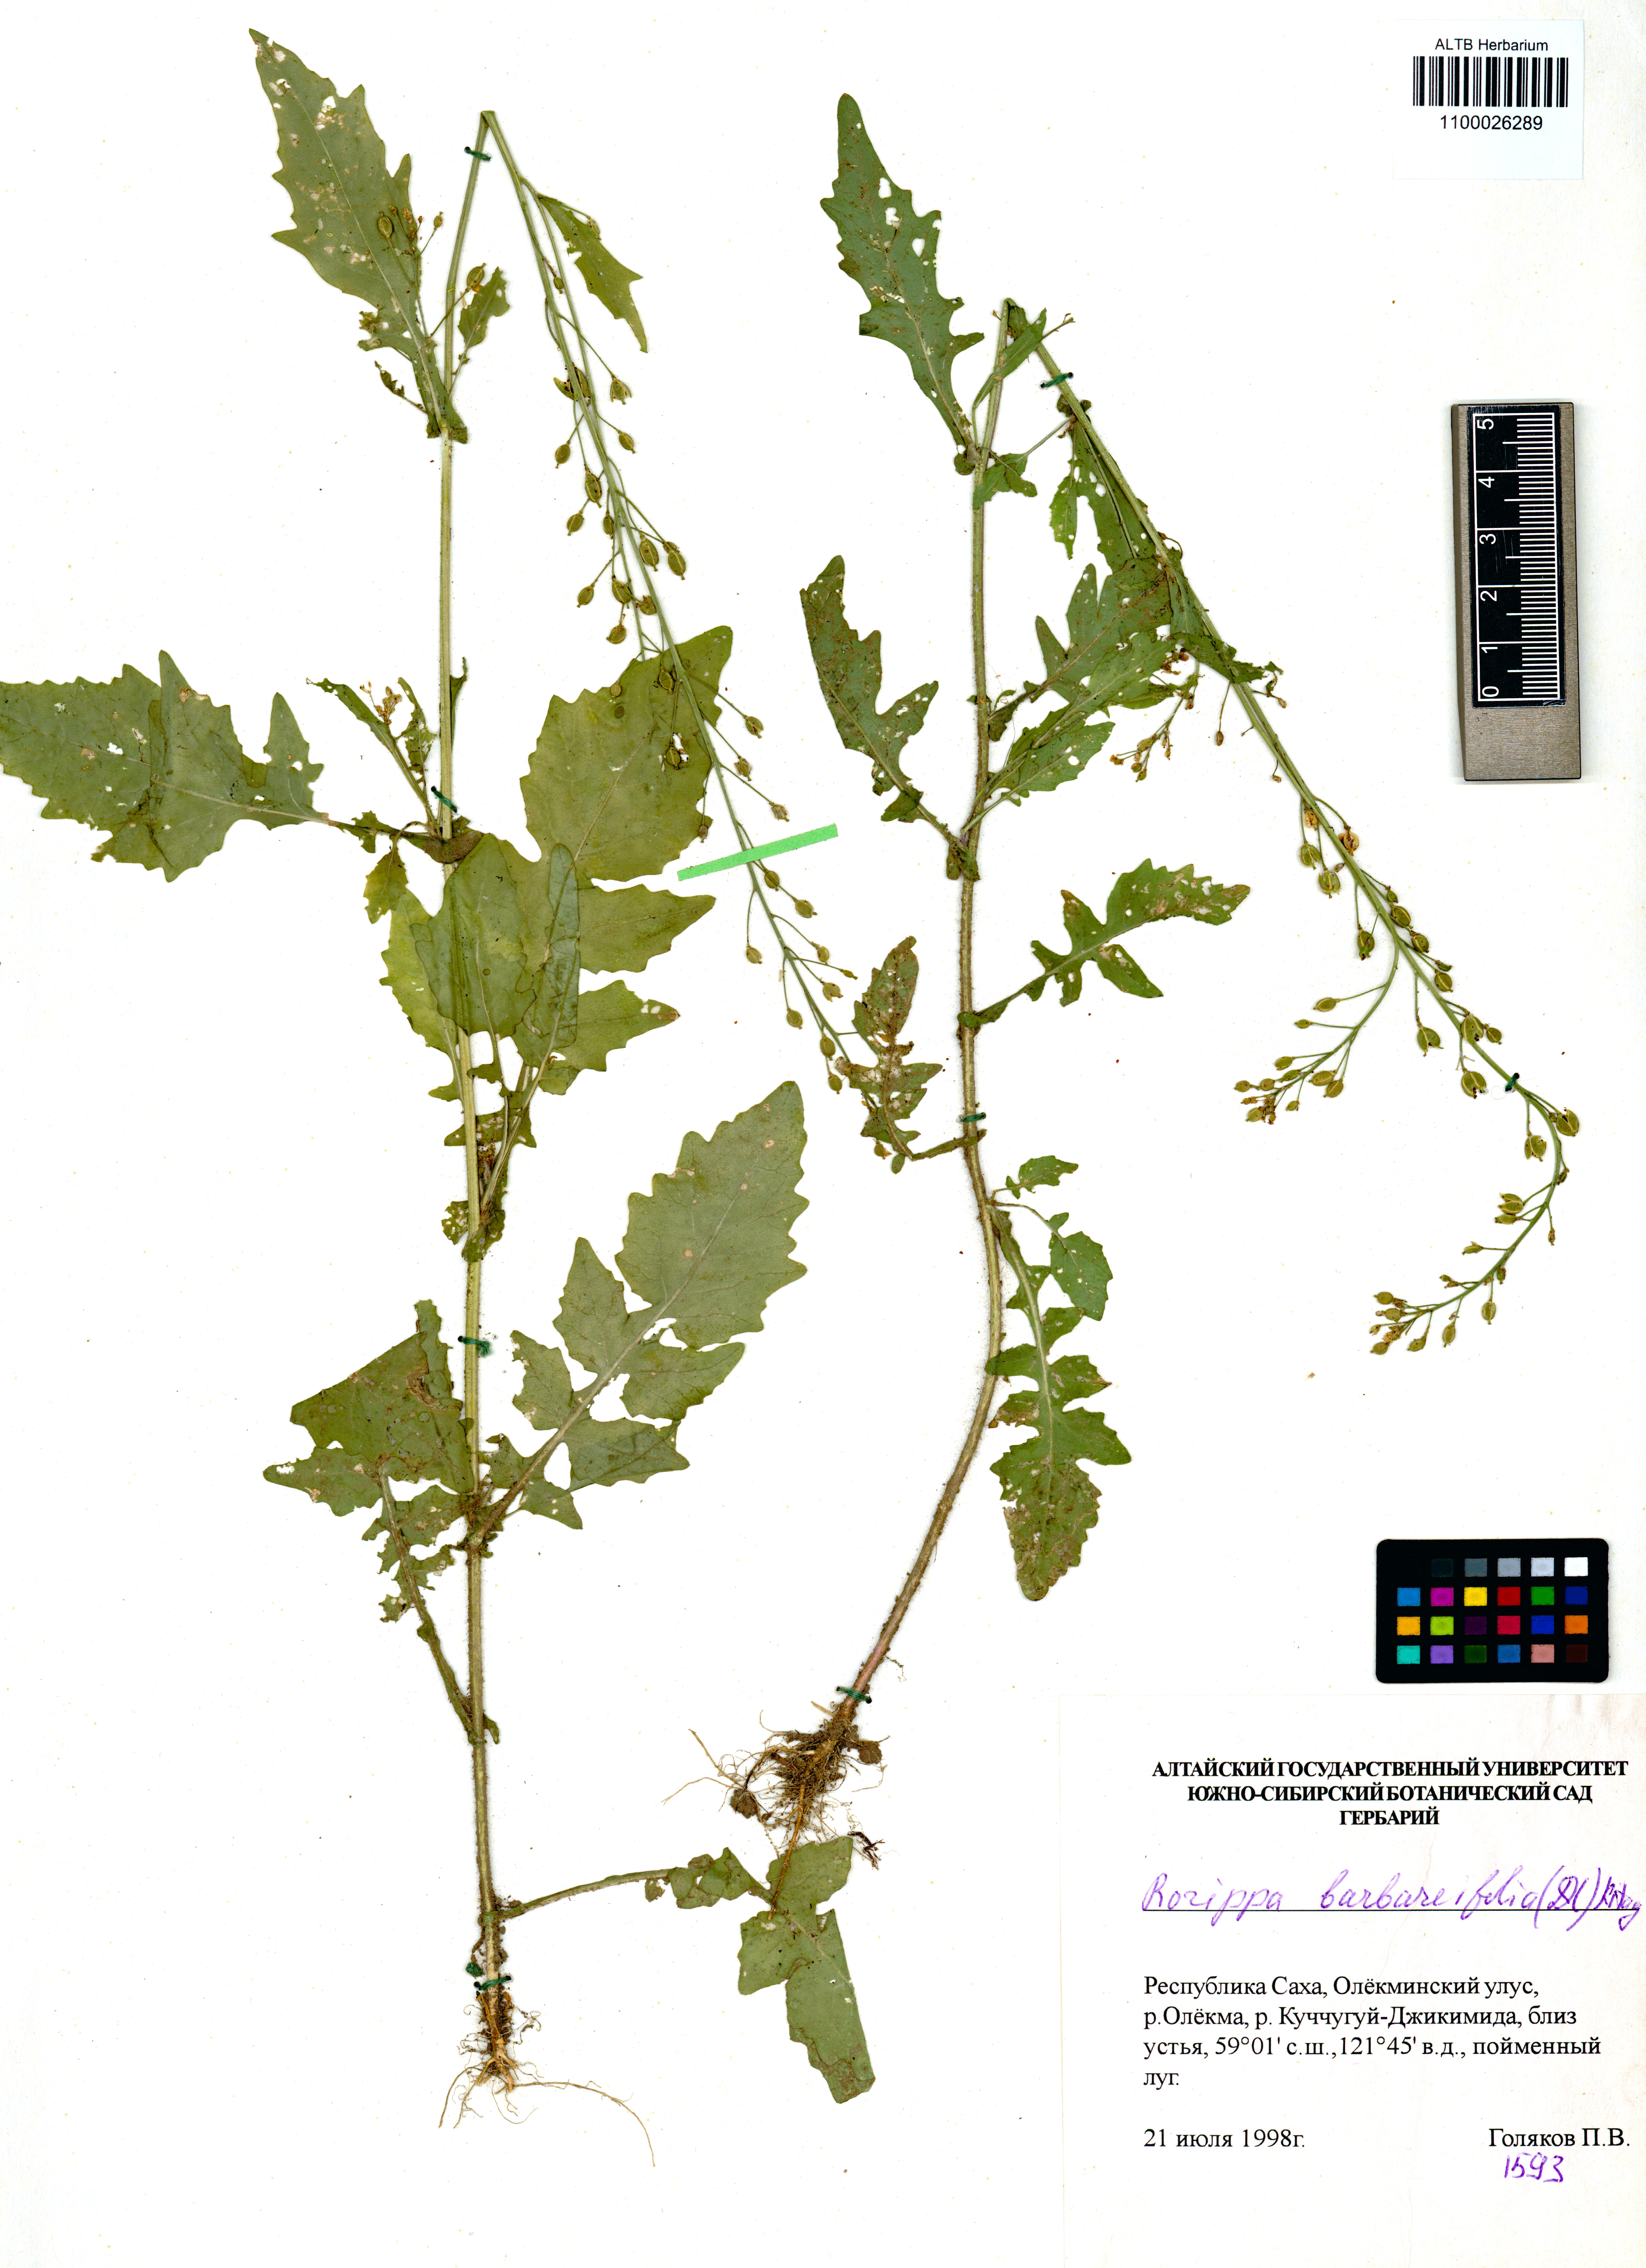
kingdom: Plantae
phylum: Tracheophyta
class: Magnoliopsida
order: Brassicales
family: Brassicaceae
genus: Rorippa
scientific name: Rorippa barbaraefolia
